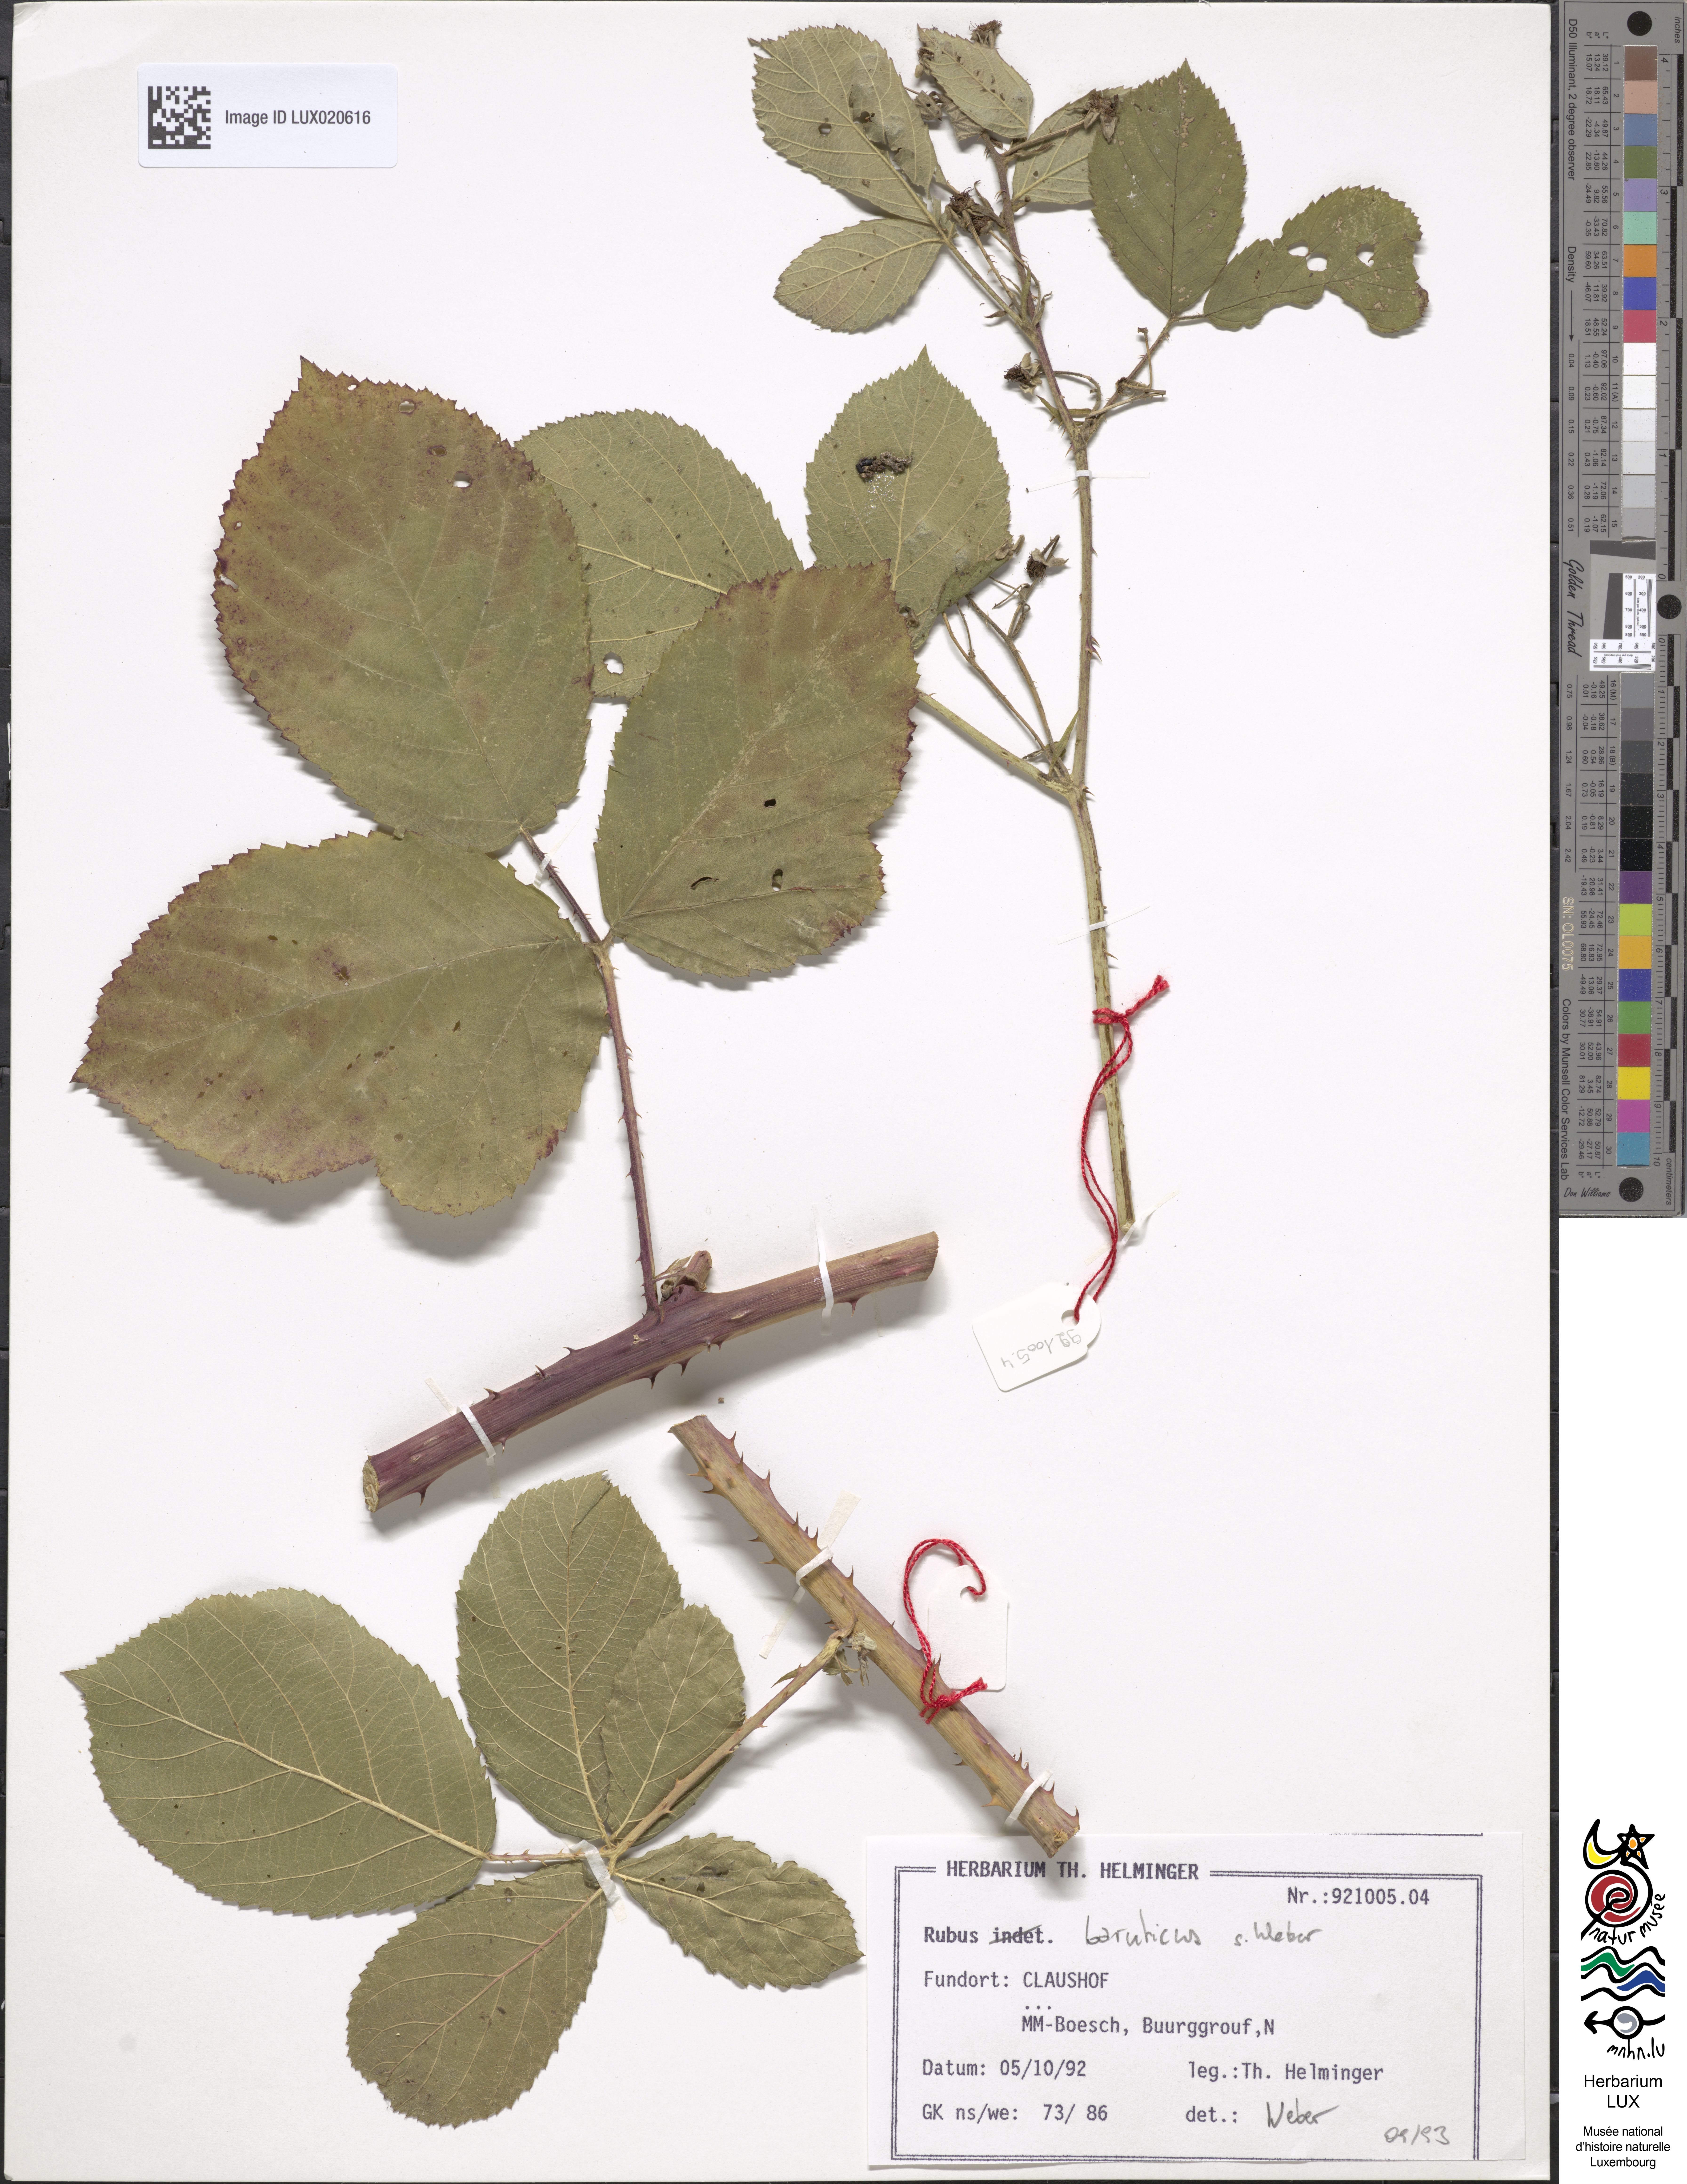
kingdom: Plantae
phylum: Tracheophyta
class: Magnoliopsida
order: Rosales
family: Rosaceae
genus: Rubus
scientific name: Rubus macrostemonides
